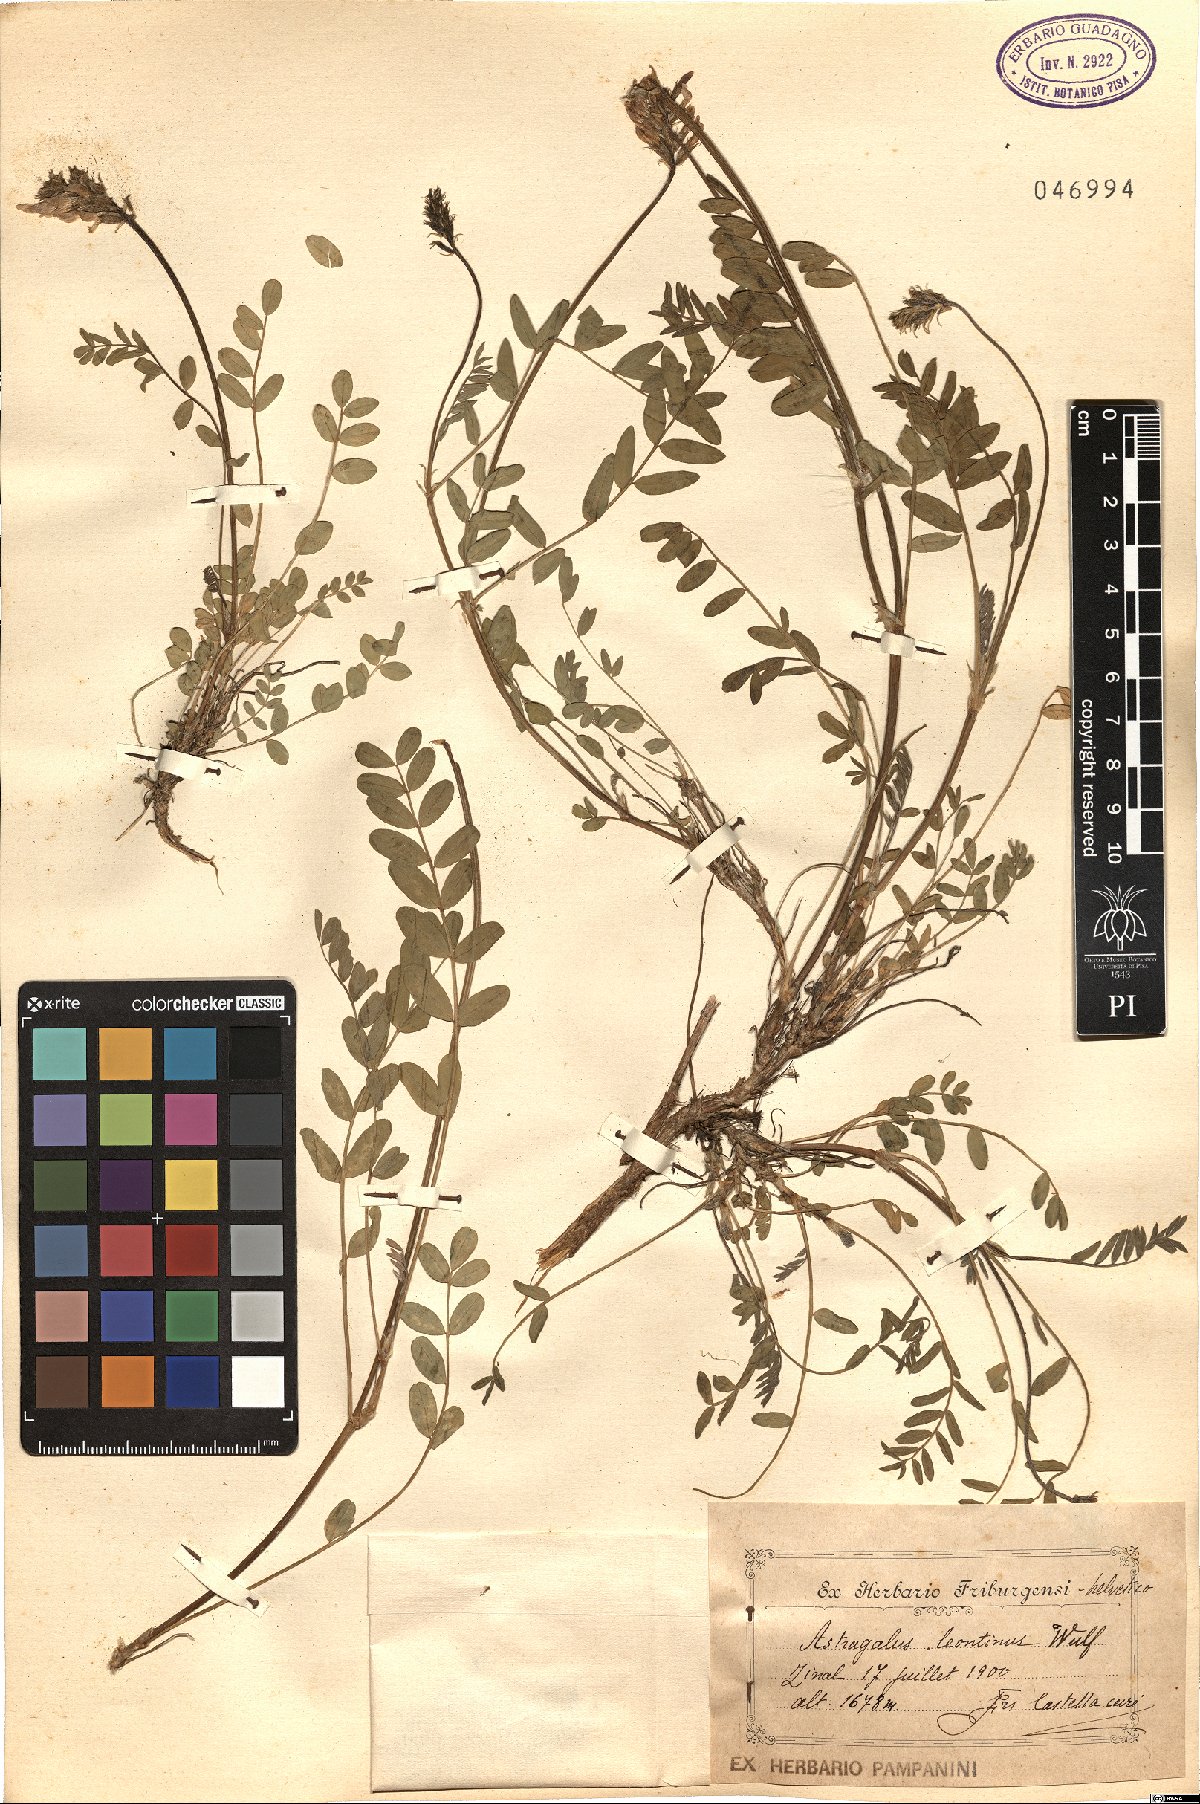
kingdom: Plantae
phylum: Tracheophyta
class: Magnoliopsida
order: Fabales
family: Fabaceae
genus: Astragalus
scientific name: Astragalus leontinus
